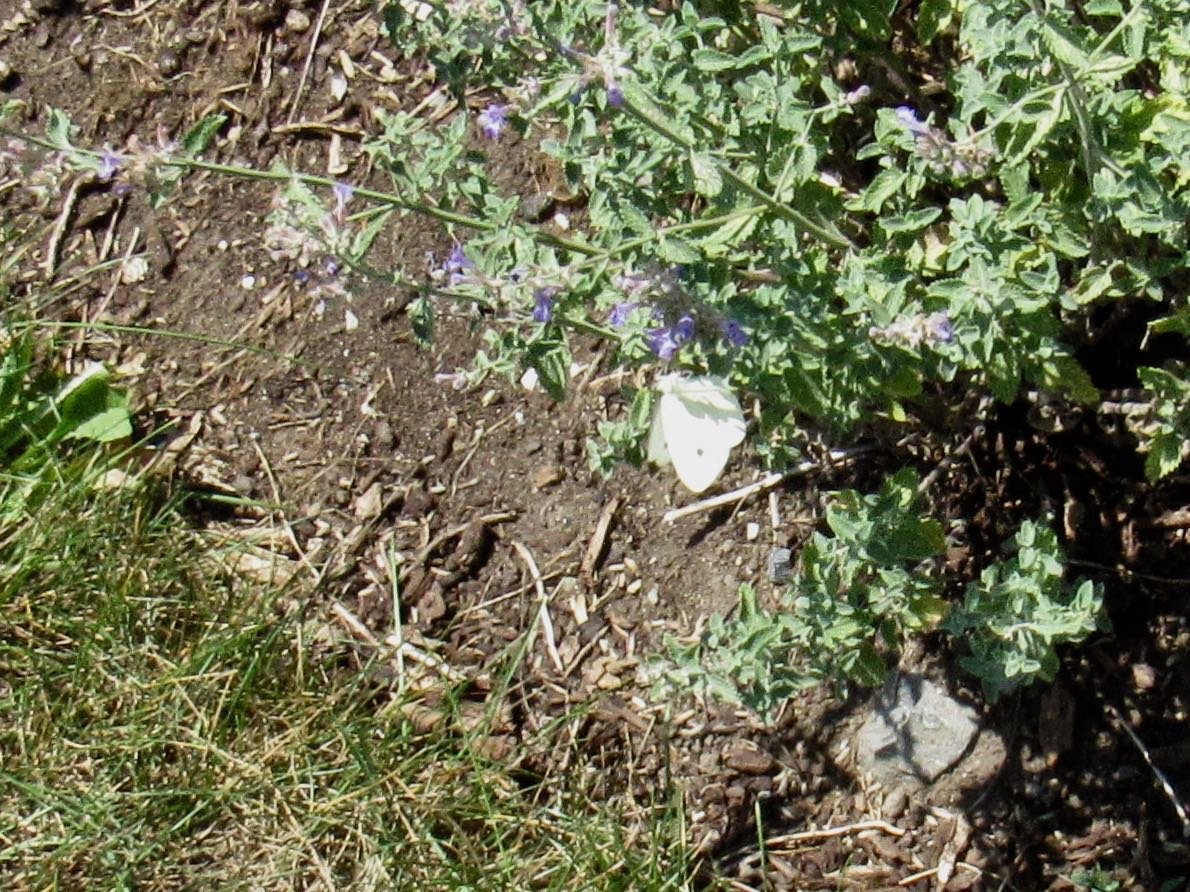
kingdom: Animalia
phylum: Arthropoda
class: Insecta
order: Lepidoptera
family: Pieridae
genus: Pieris
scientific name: Pieris rapae
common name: Cabbage White
